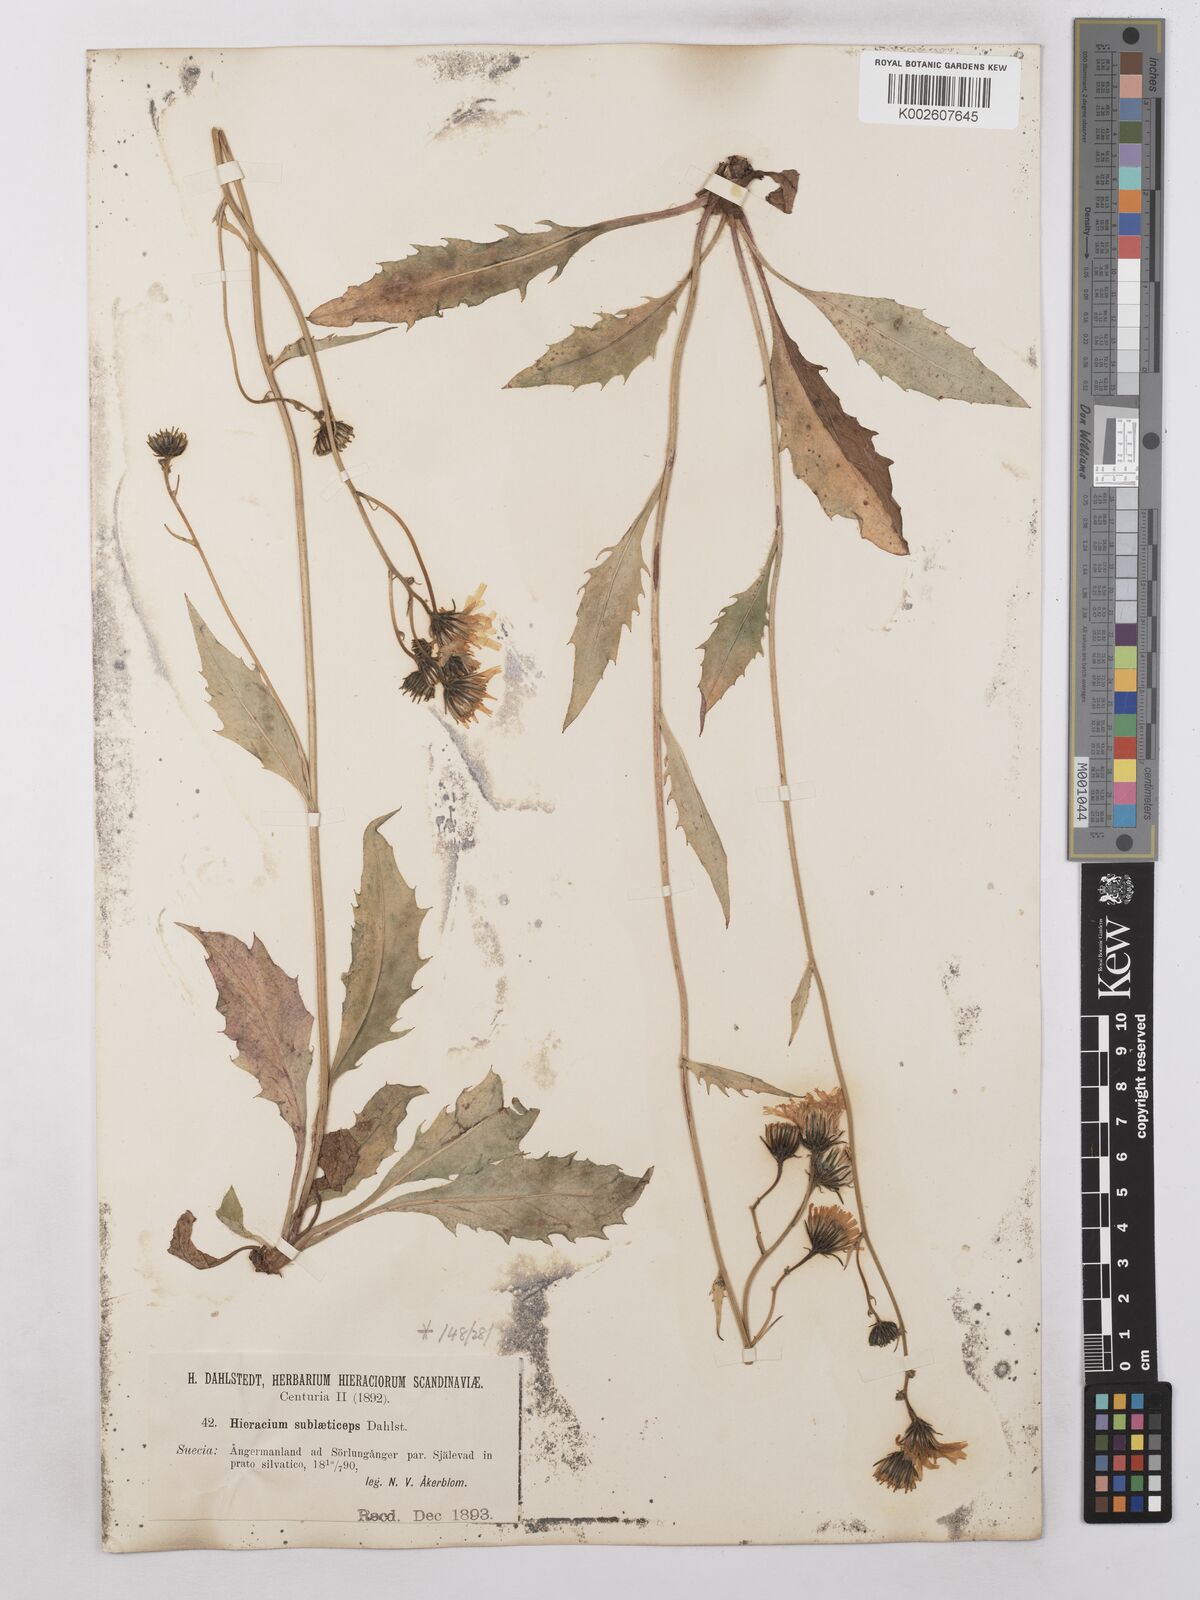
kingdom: Plantae
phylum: Tracheophyta
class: Magnoliopsida
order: Asterales
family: Asteraceae
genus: Hieracium
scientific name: Hieracium subramosum
